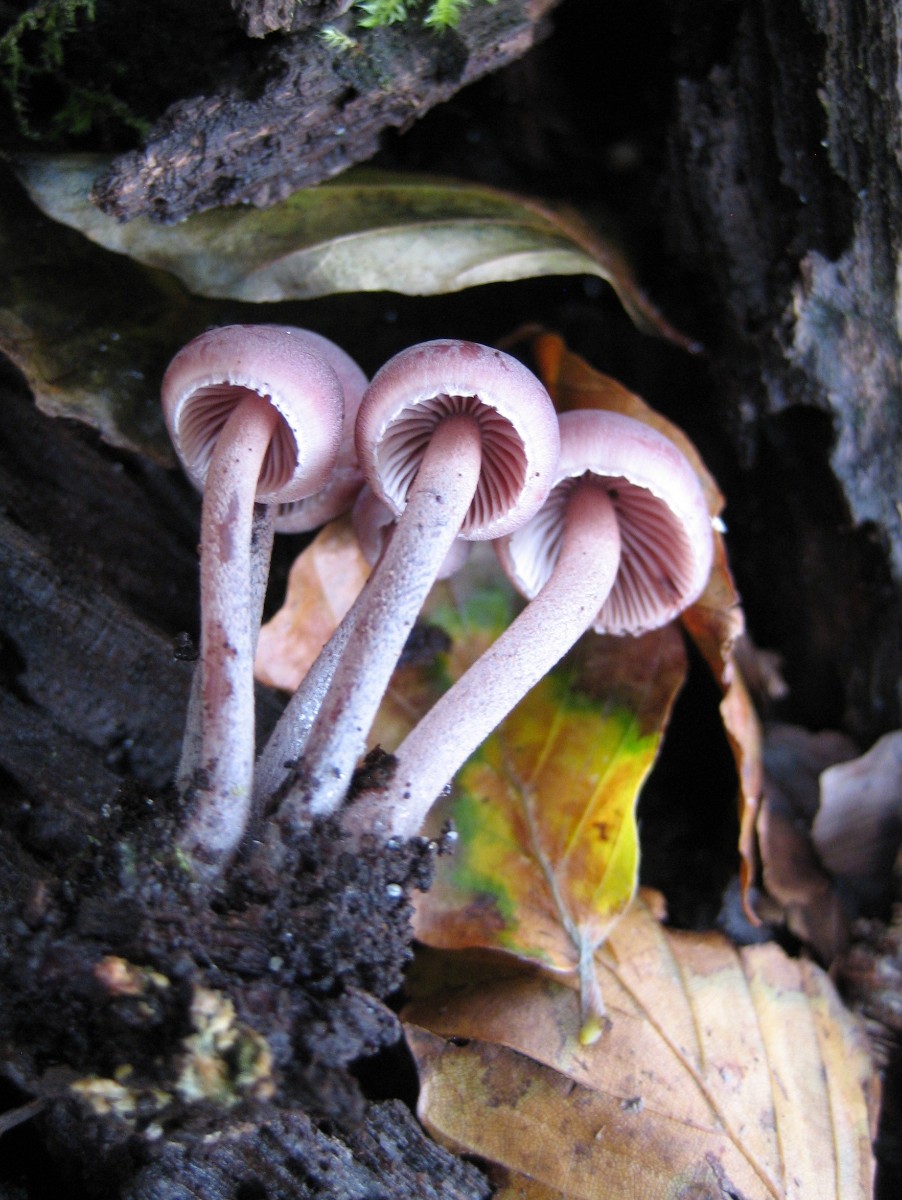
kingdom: Fungi
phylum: Basidiomycota
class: Agaricomycetes
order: Agaricales
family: Mycenaceae
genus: Mycena
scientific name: Mycena haematopus
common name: blødende huesvamp
